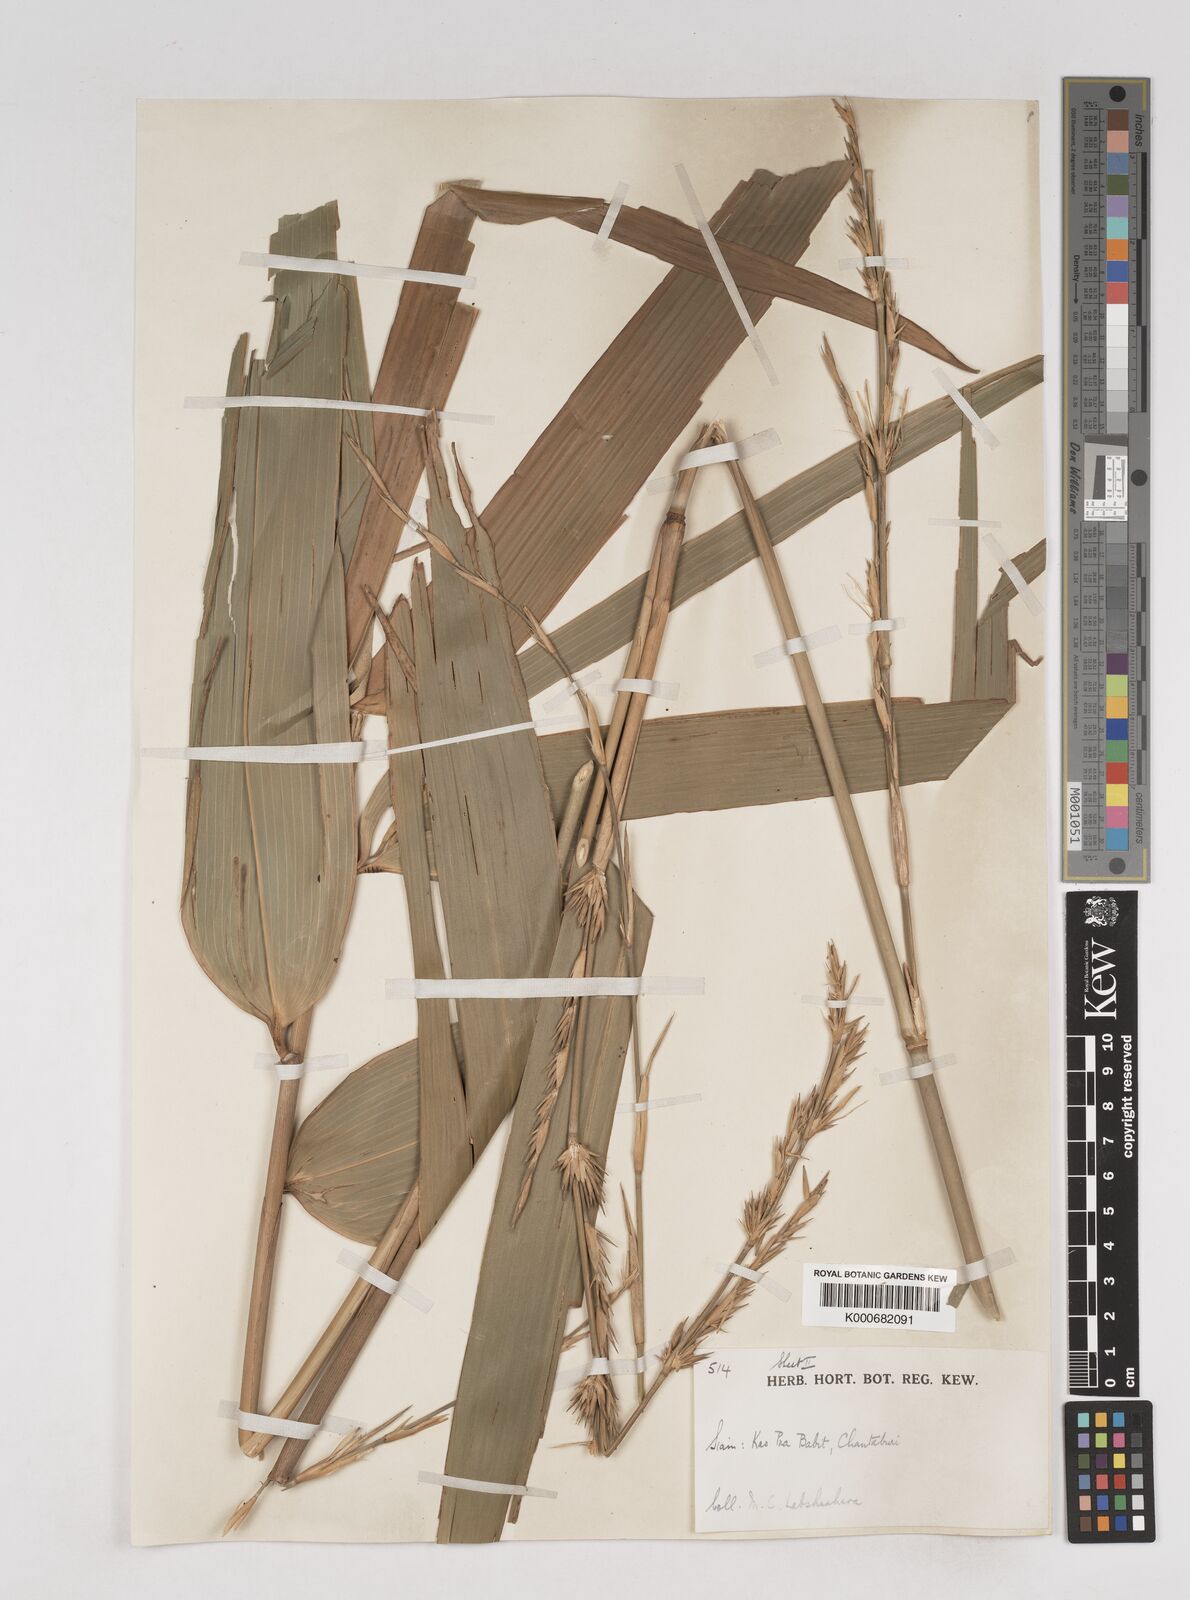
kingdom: Plantae
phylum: Tracheophyta
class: Liliopsida
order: Poales
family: Poaceae
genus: Schizostachyum
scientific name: Schizostachyum
